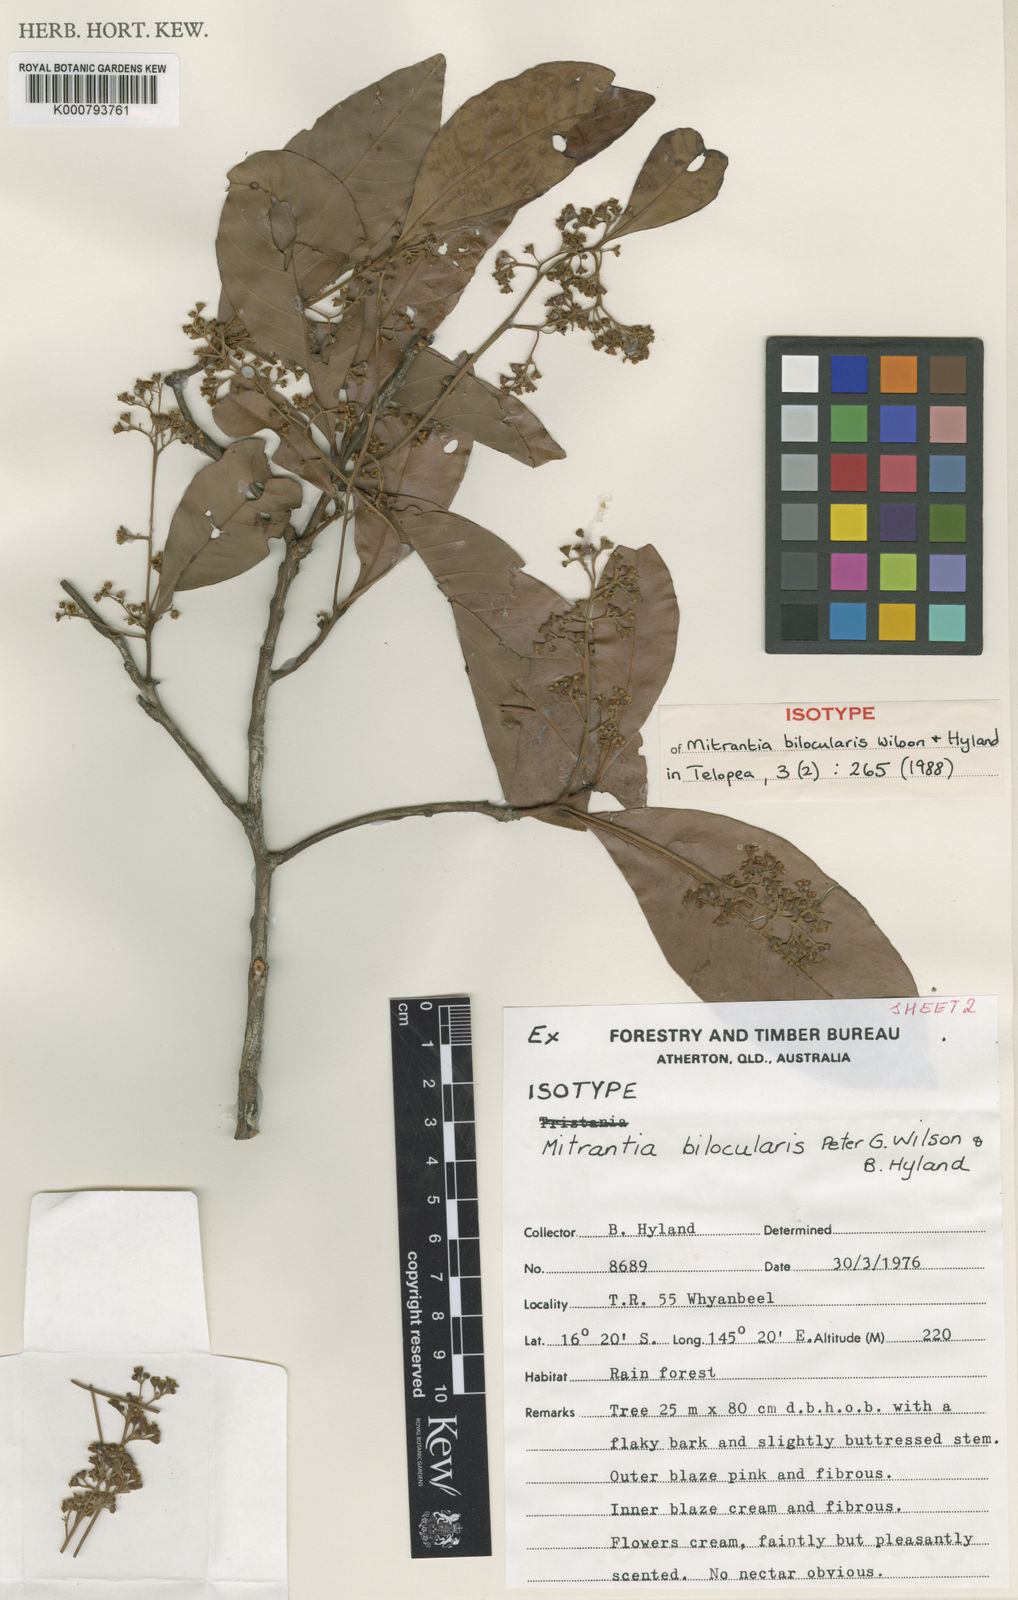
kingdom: Plantae
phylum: Tracheophyta
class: Magnoliopsida
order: Myrtales
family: Myrtaceae
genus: Mitrantia
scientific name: Mitrantia bilocularis
